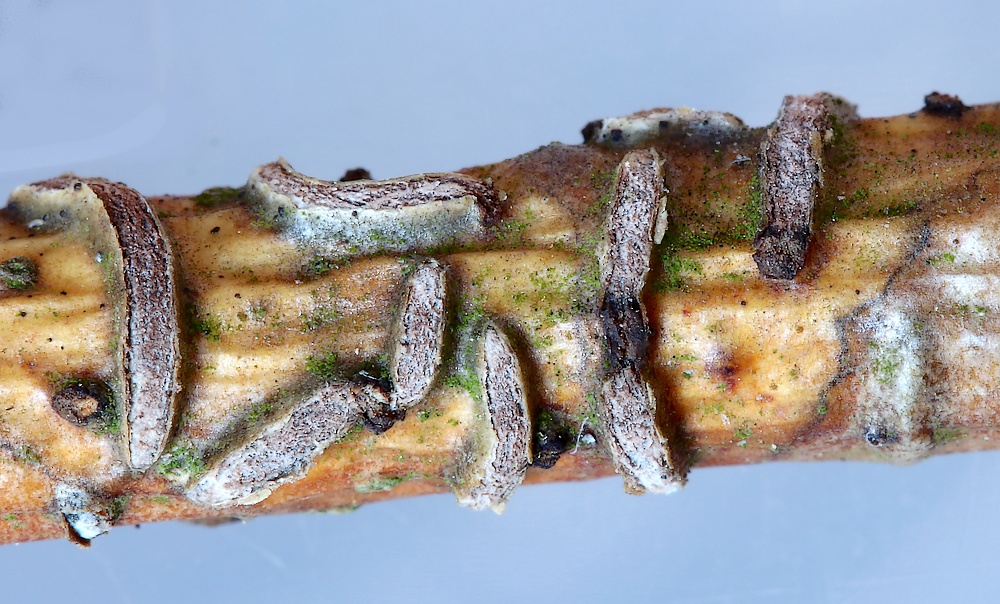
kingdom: Fungi
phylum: Ascomycota
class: Leotiomycetes
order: Rhytismatales
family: Rhytismataceae
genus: Colpoma
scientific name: Colpoma quercinum
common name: ege-sprækkeskive
